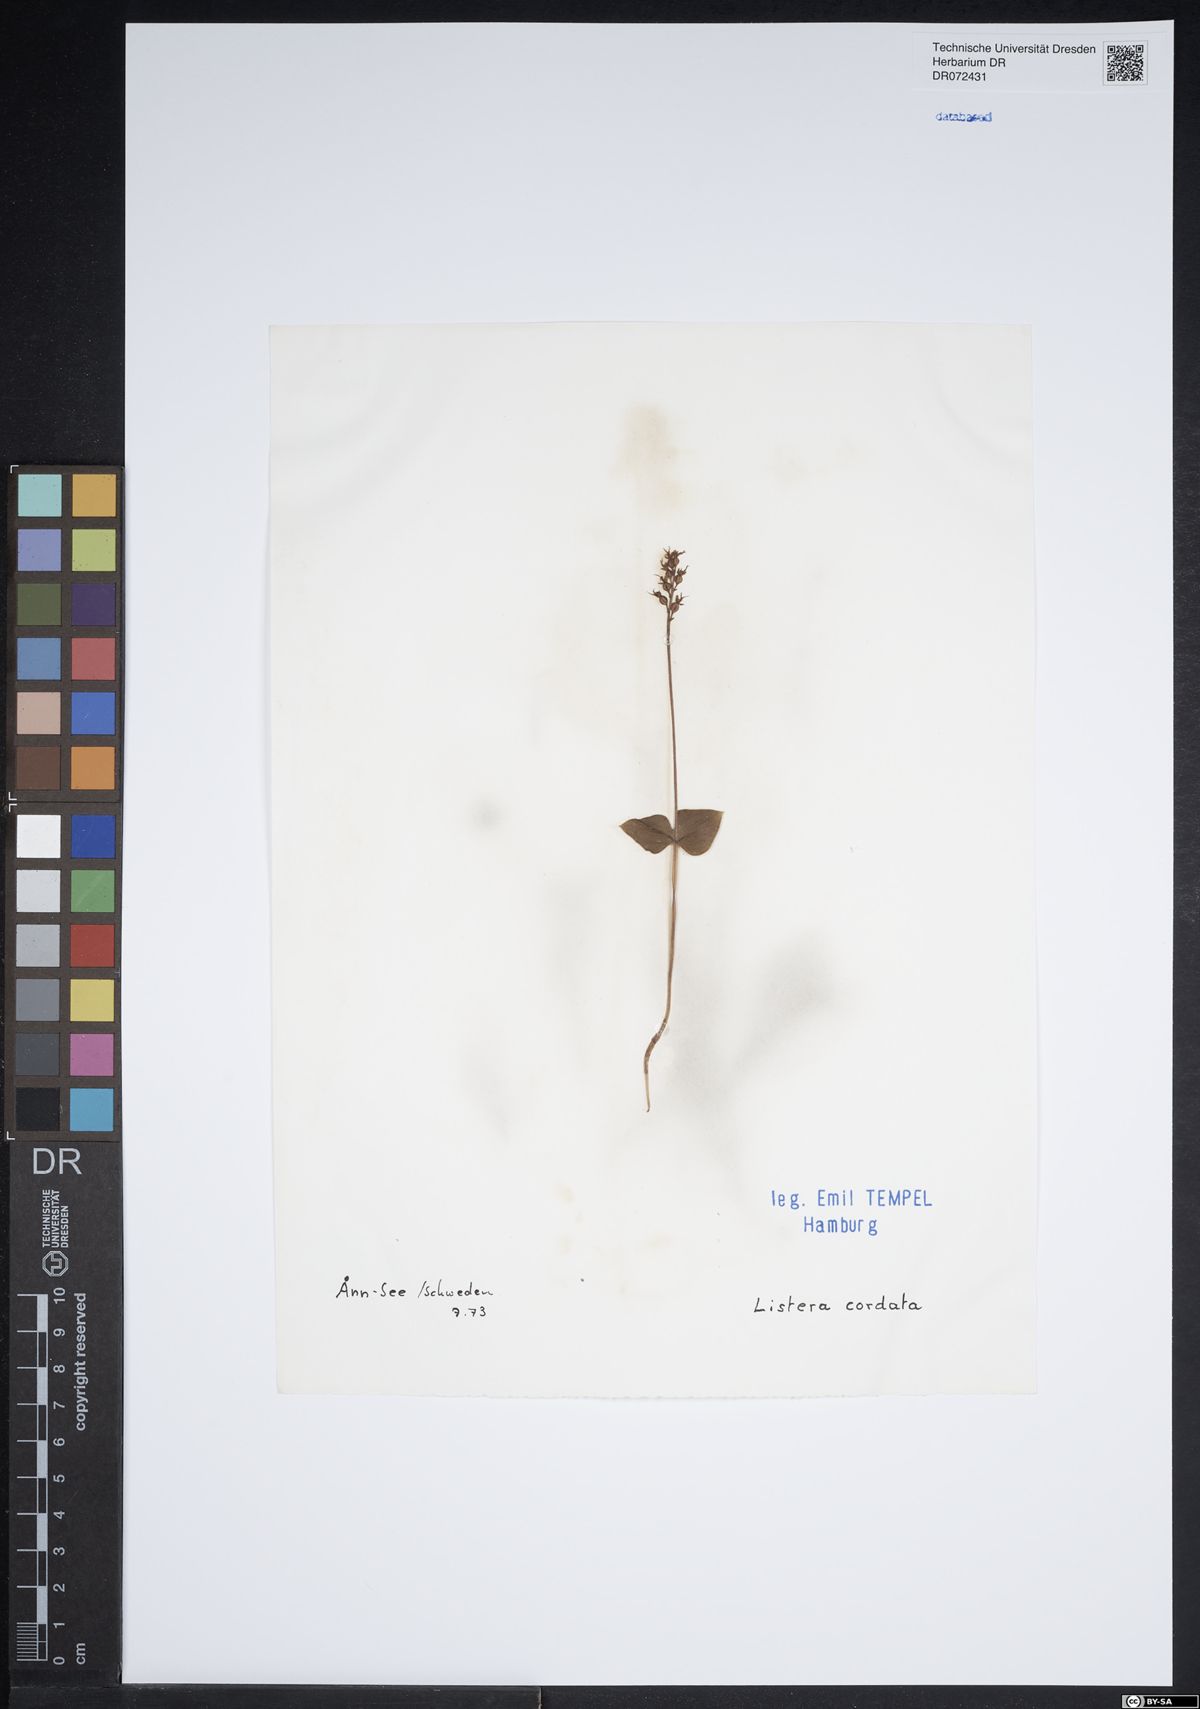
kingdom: Plantae
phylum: Tracheophyta
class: Liliopsida
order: Asparagales
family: Orchidaceae
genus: Neottia
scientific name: Neottia cordata
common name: Lesser twayblade
